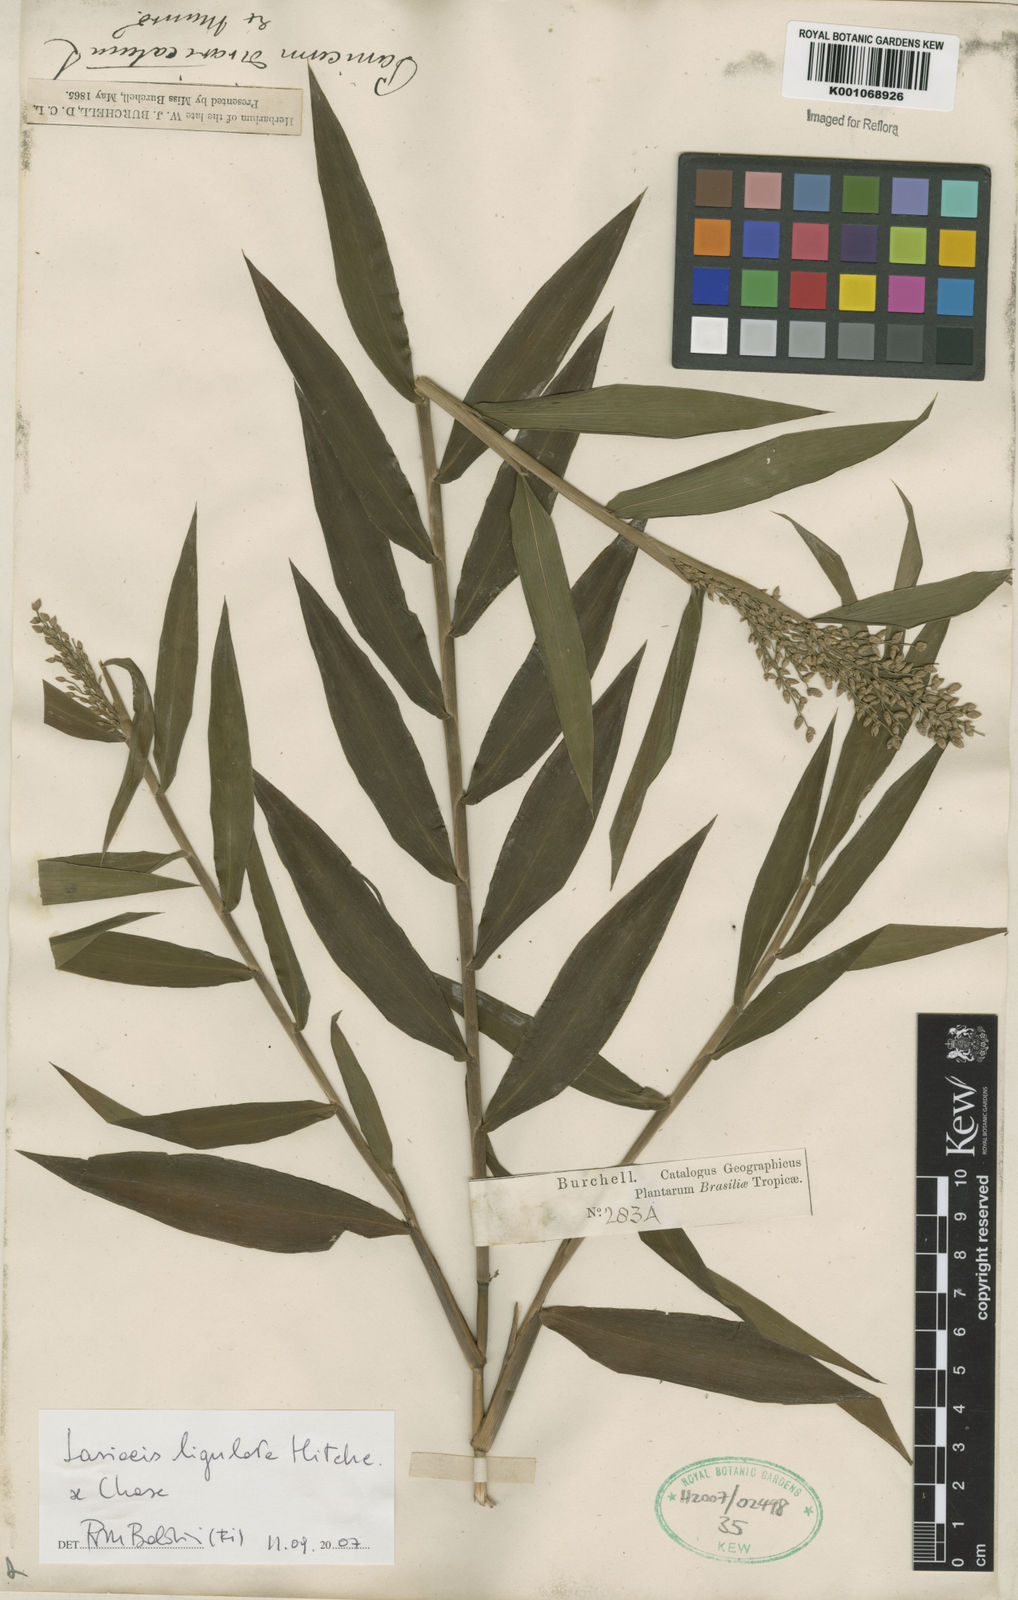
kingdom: Plantae
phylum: Tracheophyta
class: Liliopsida
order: Poales
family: Poaceae
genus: Lasiacis
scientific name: Lasiacis ligulata
